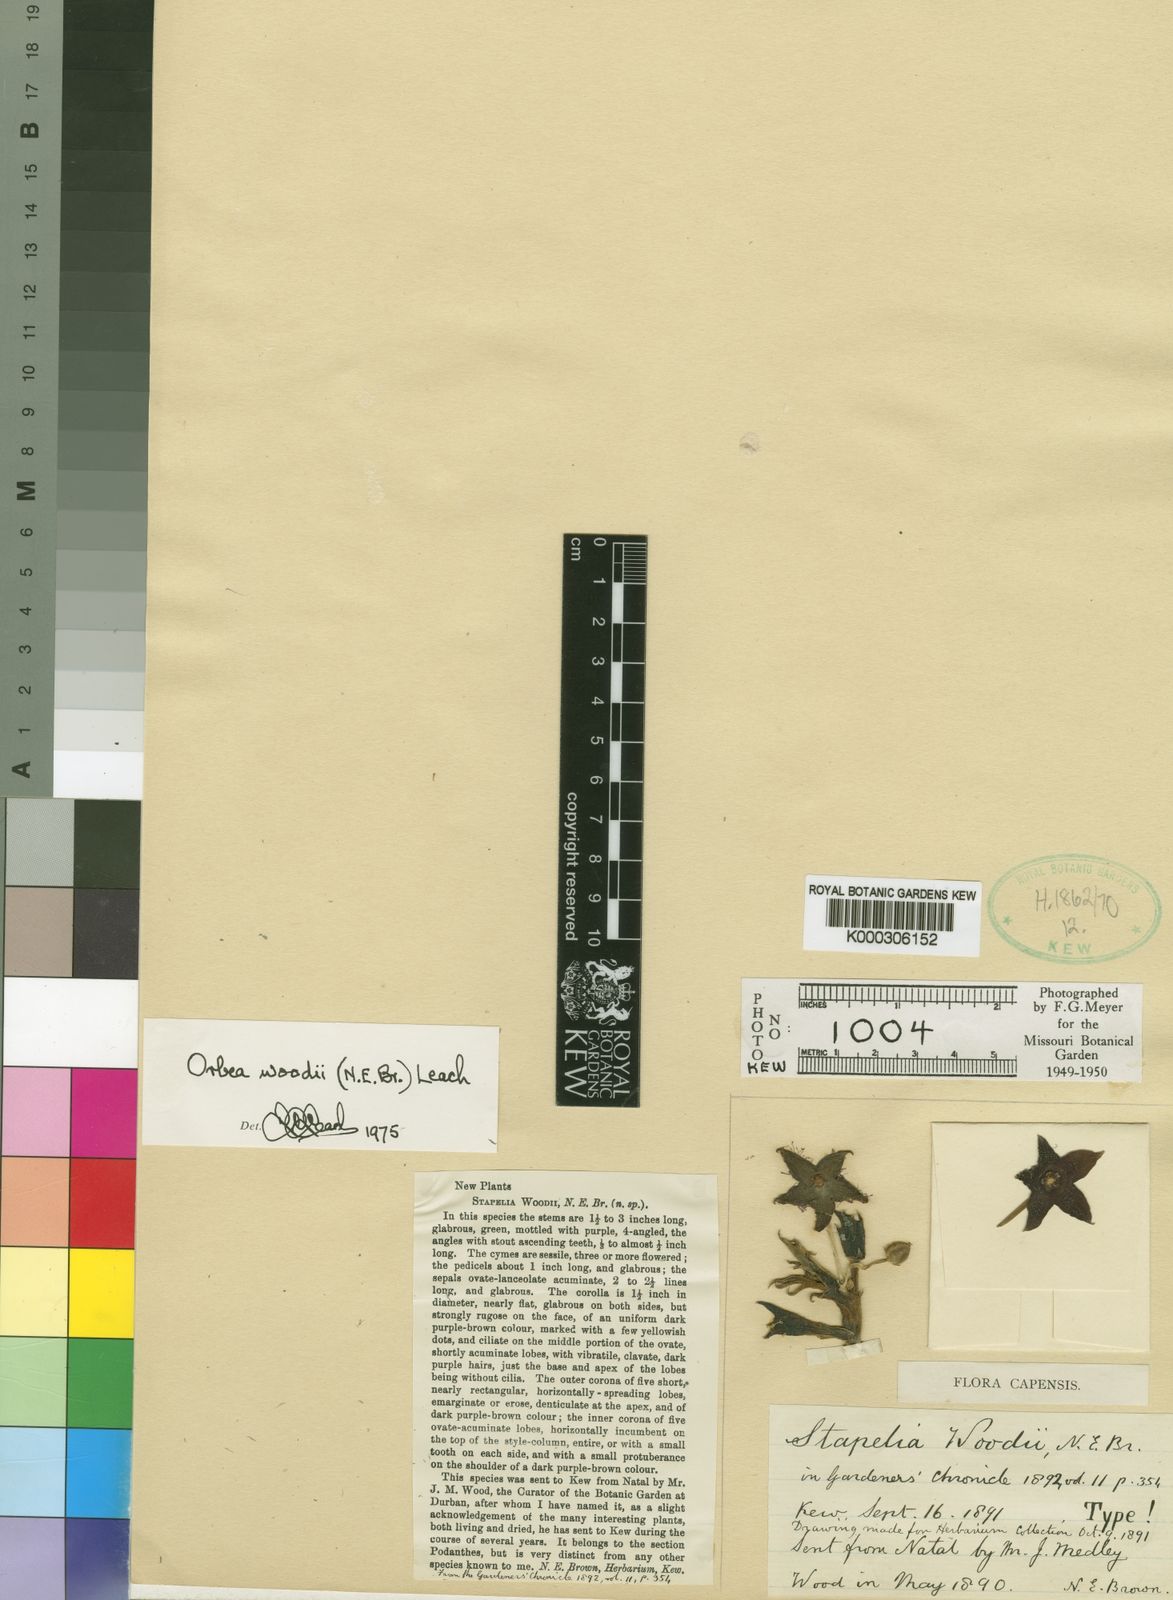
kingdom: Plantae
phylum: Tracheophyta
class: Magnoliopsida
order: Gentianales
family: Apocynaceae
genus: Ceropegia
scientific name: Ceropegia woodiana
